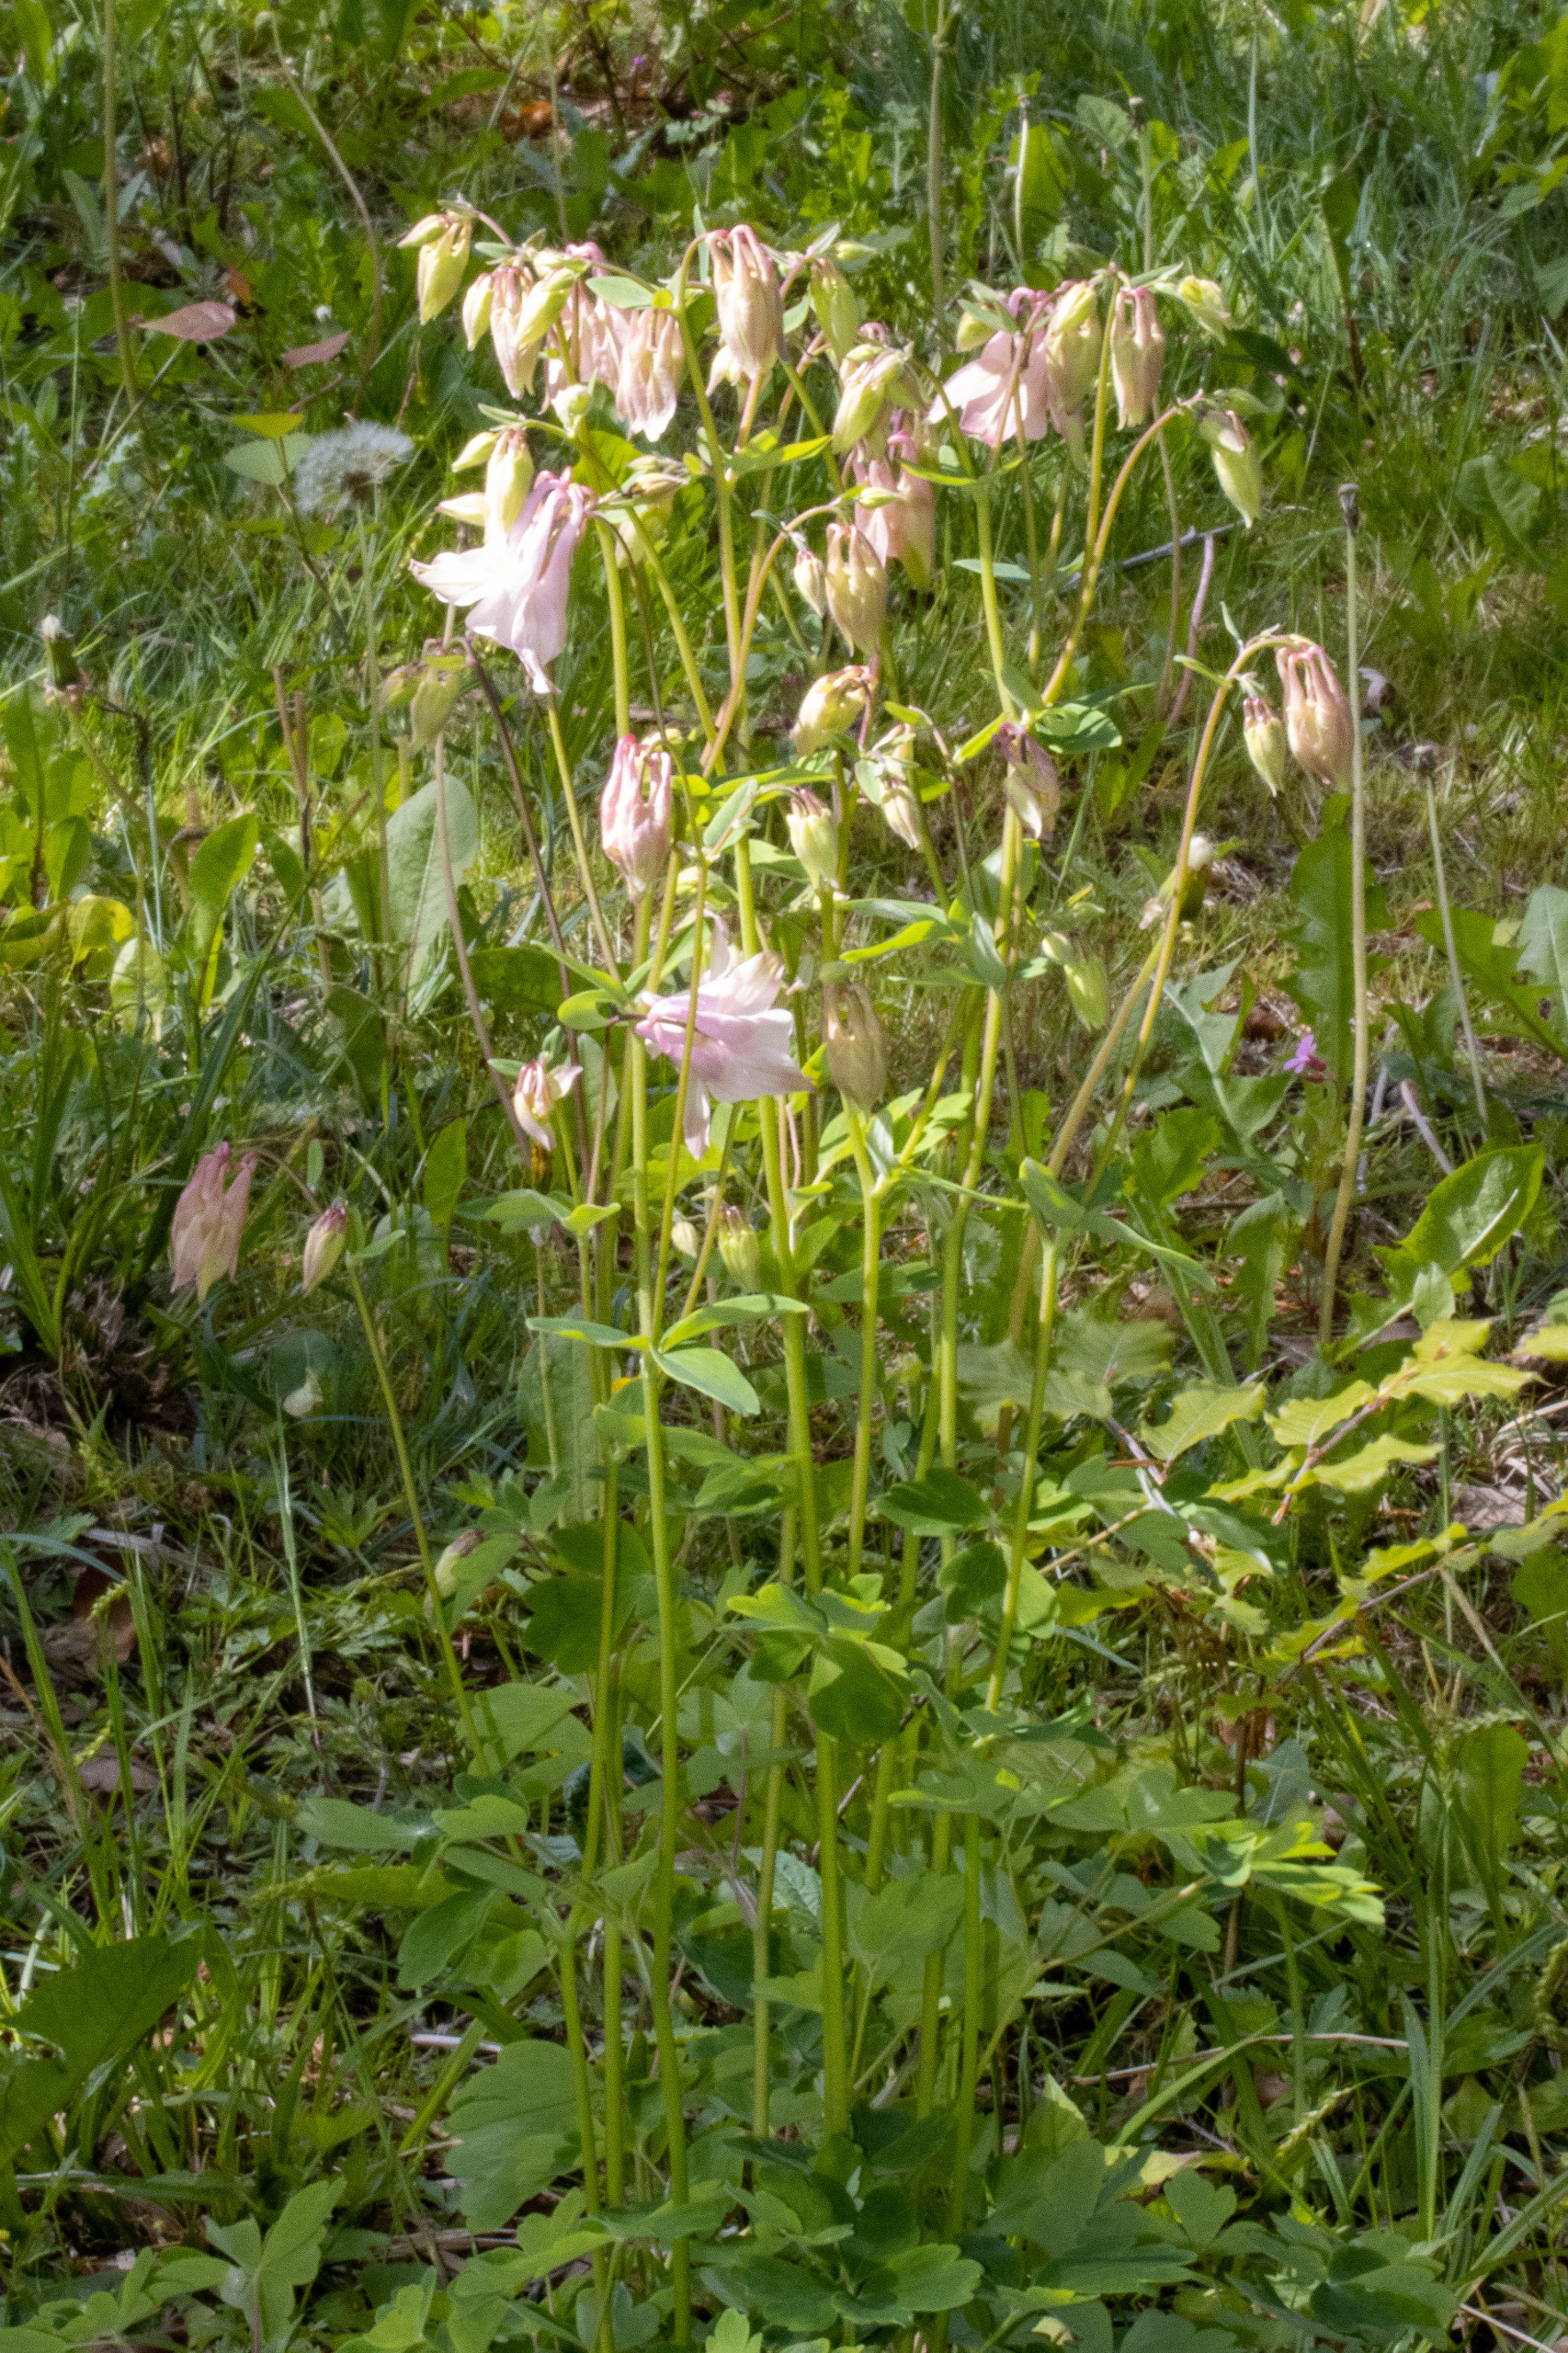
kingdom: Plantae
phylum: Tracheophyta
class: Magnoliopsida
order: Ranunculales
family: Ranunculaceae
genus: Aquilegia
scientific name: Aquilegia vulgaris
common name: Akeleje
